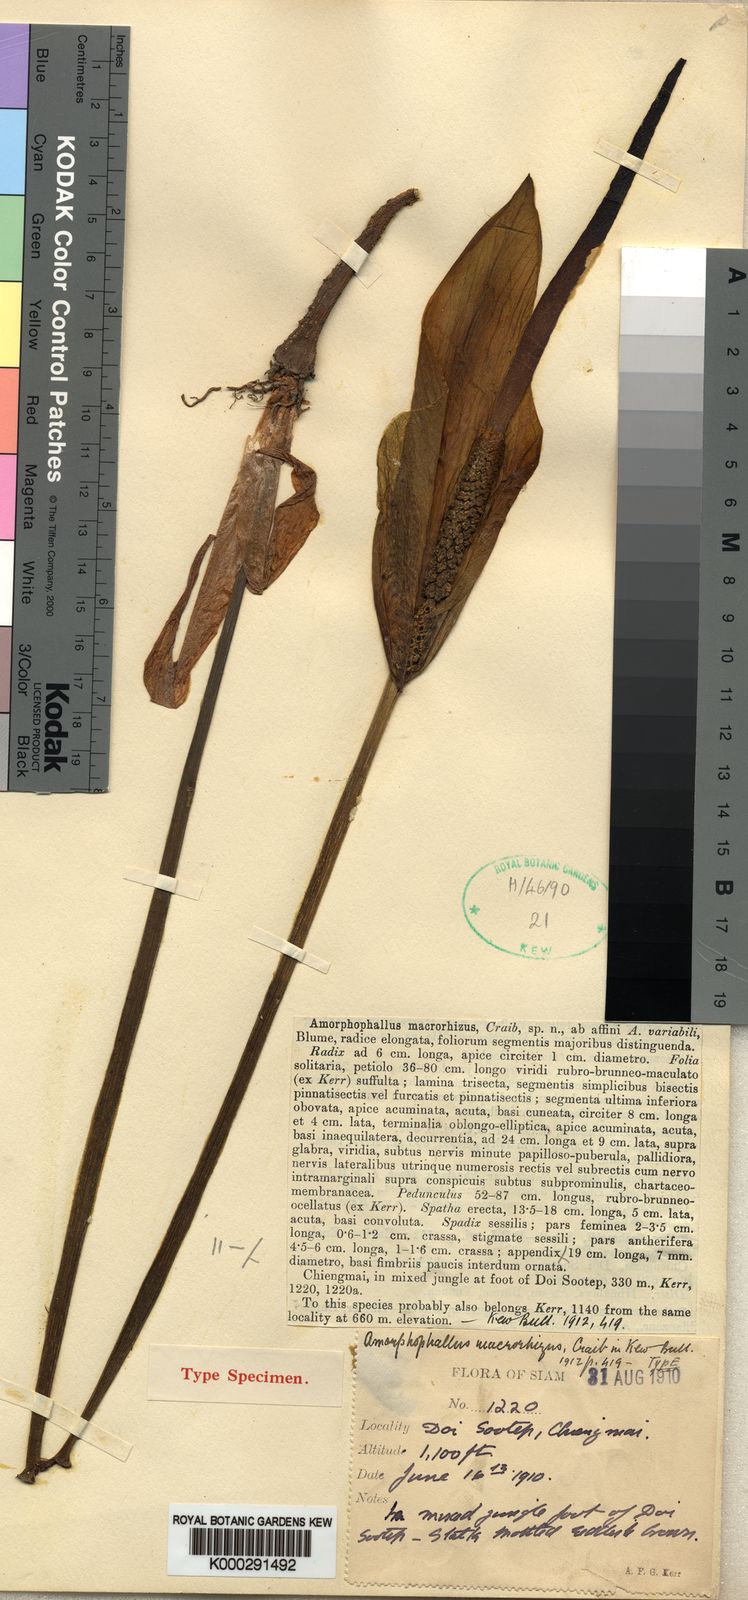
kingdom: Plantae
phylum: Tracheophyta
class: Liliopsida
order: Alismatales
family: Araceae
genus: Amorphophallus
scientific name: Amorphophallus macrorhizus
